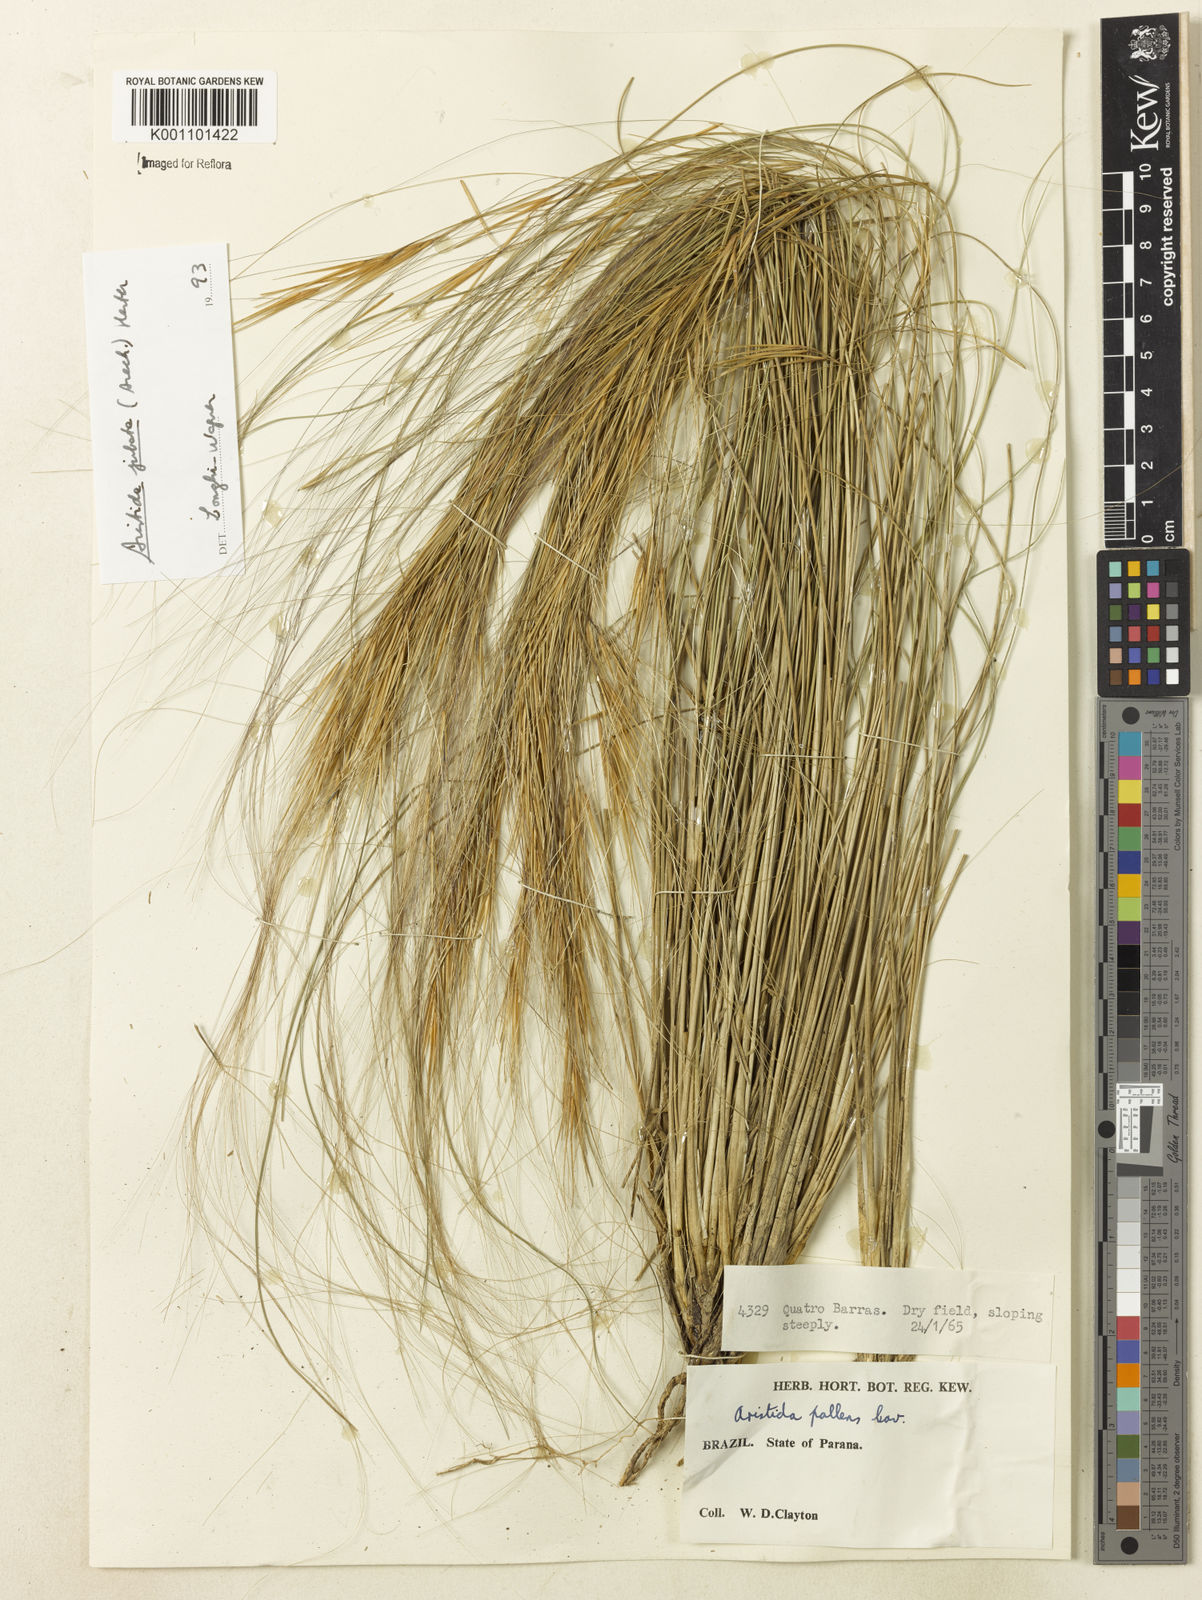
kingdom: Plantae
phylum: Tracheophyta
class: Liliopsida
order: Poales
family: Poaceae
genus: Aristida
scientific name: Aristida jubata
